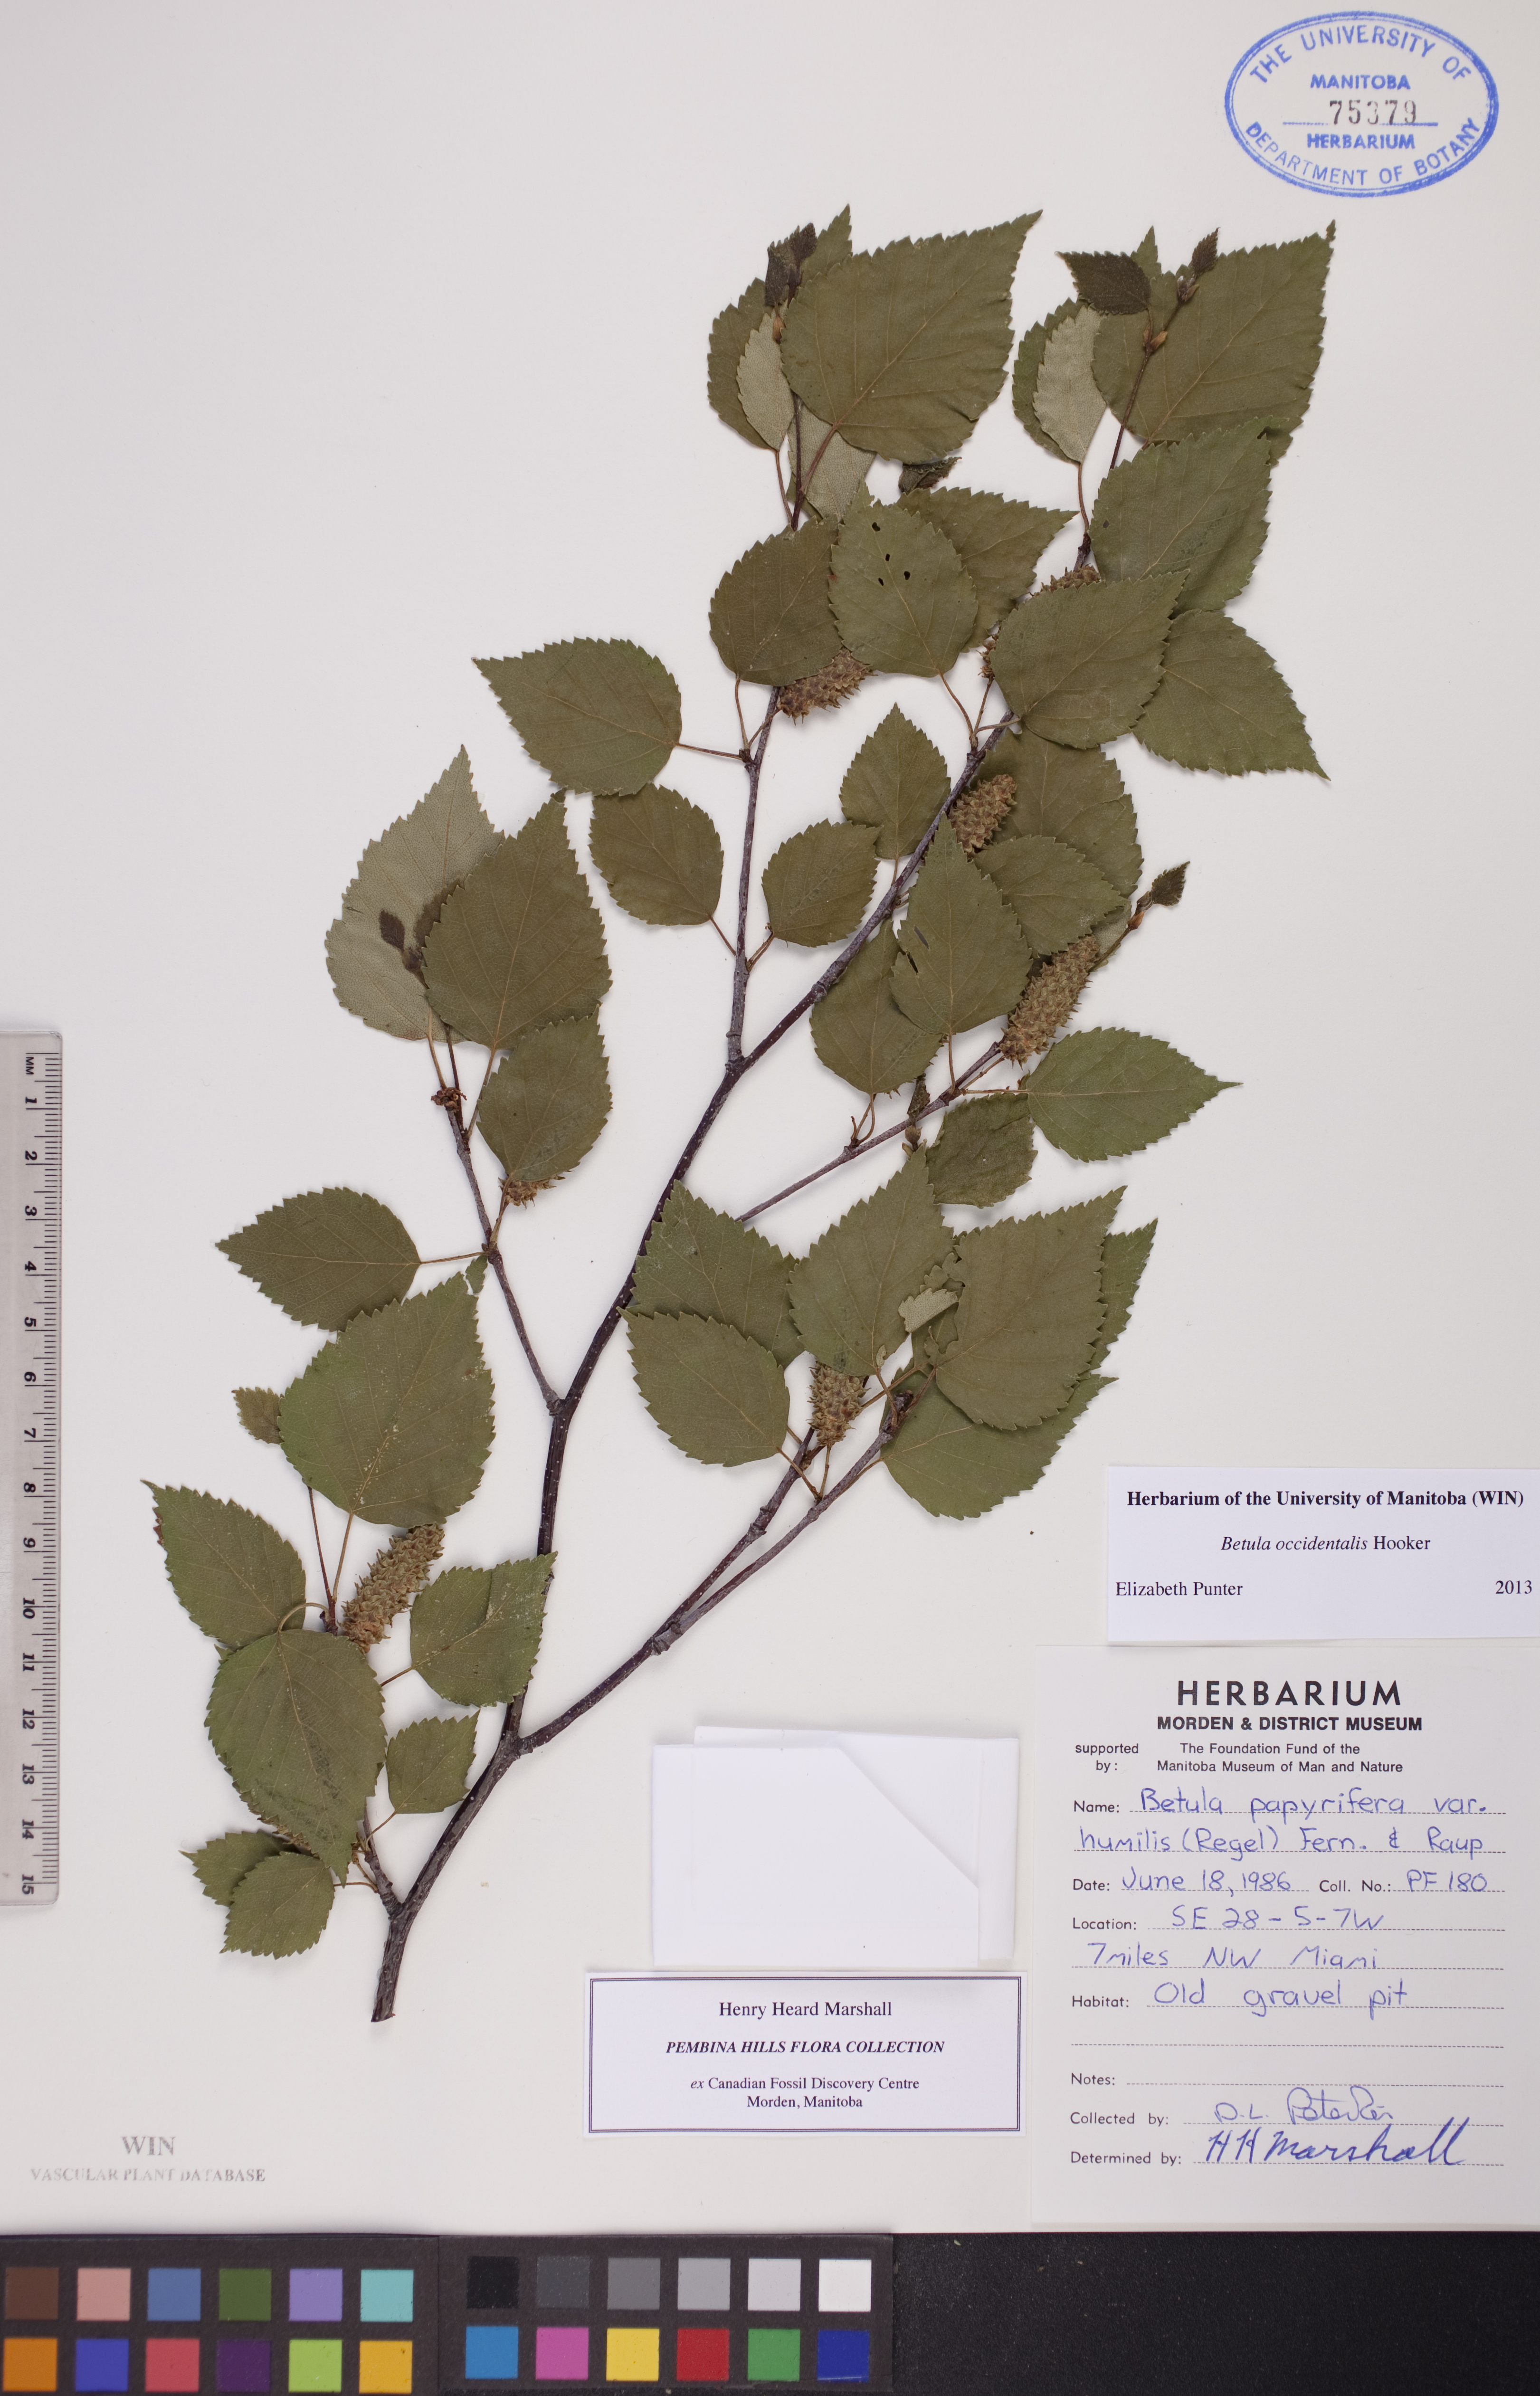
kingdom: Plantae
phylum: Tracheophyta
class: Magnoliopsida
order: Fagales
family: Betulaceae
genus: Betula
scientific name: Betula occidentalis
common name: River birch
